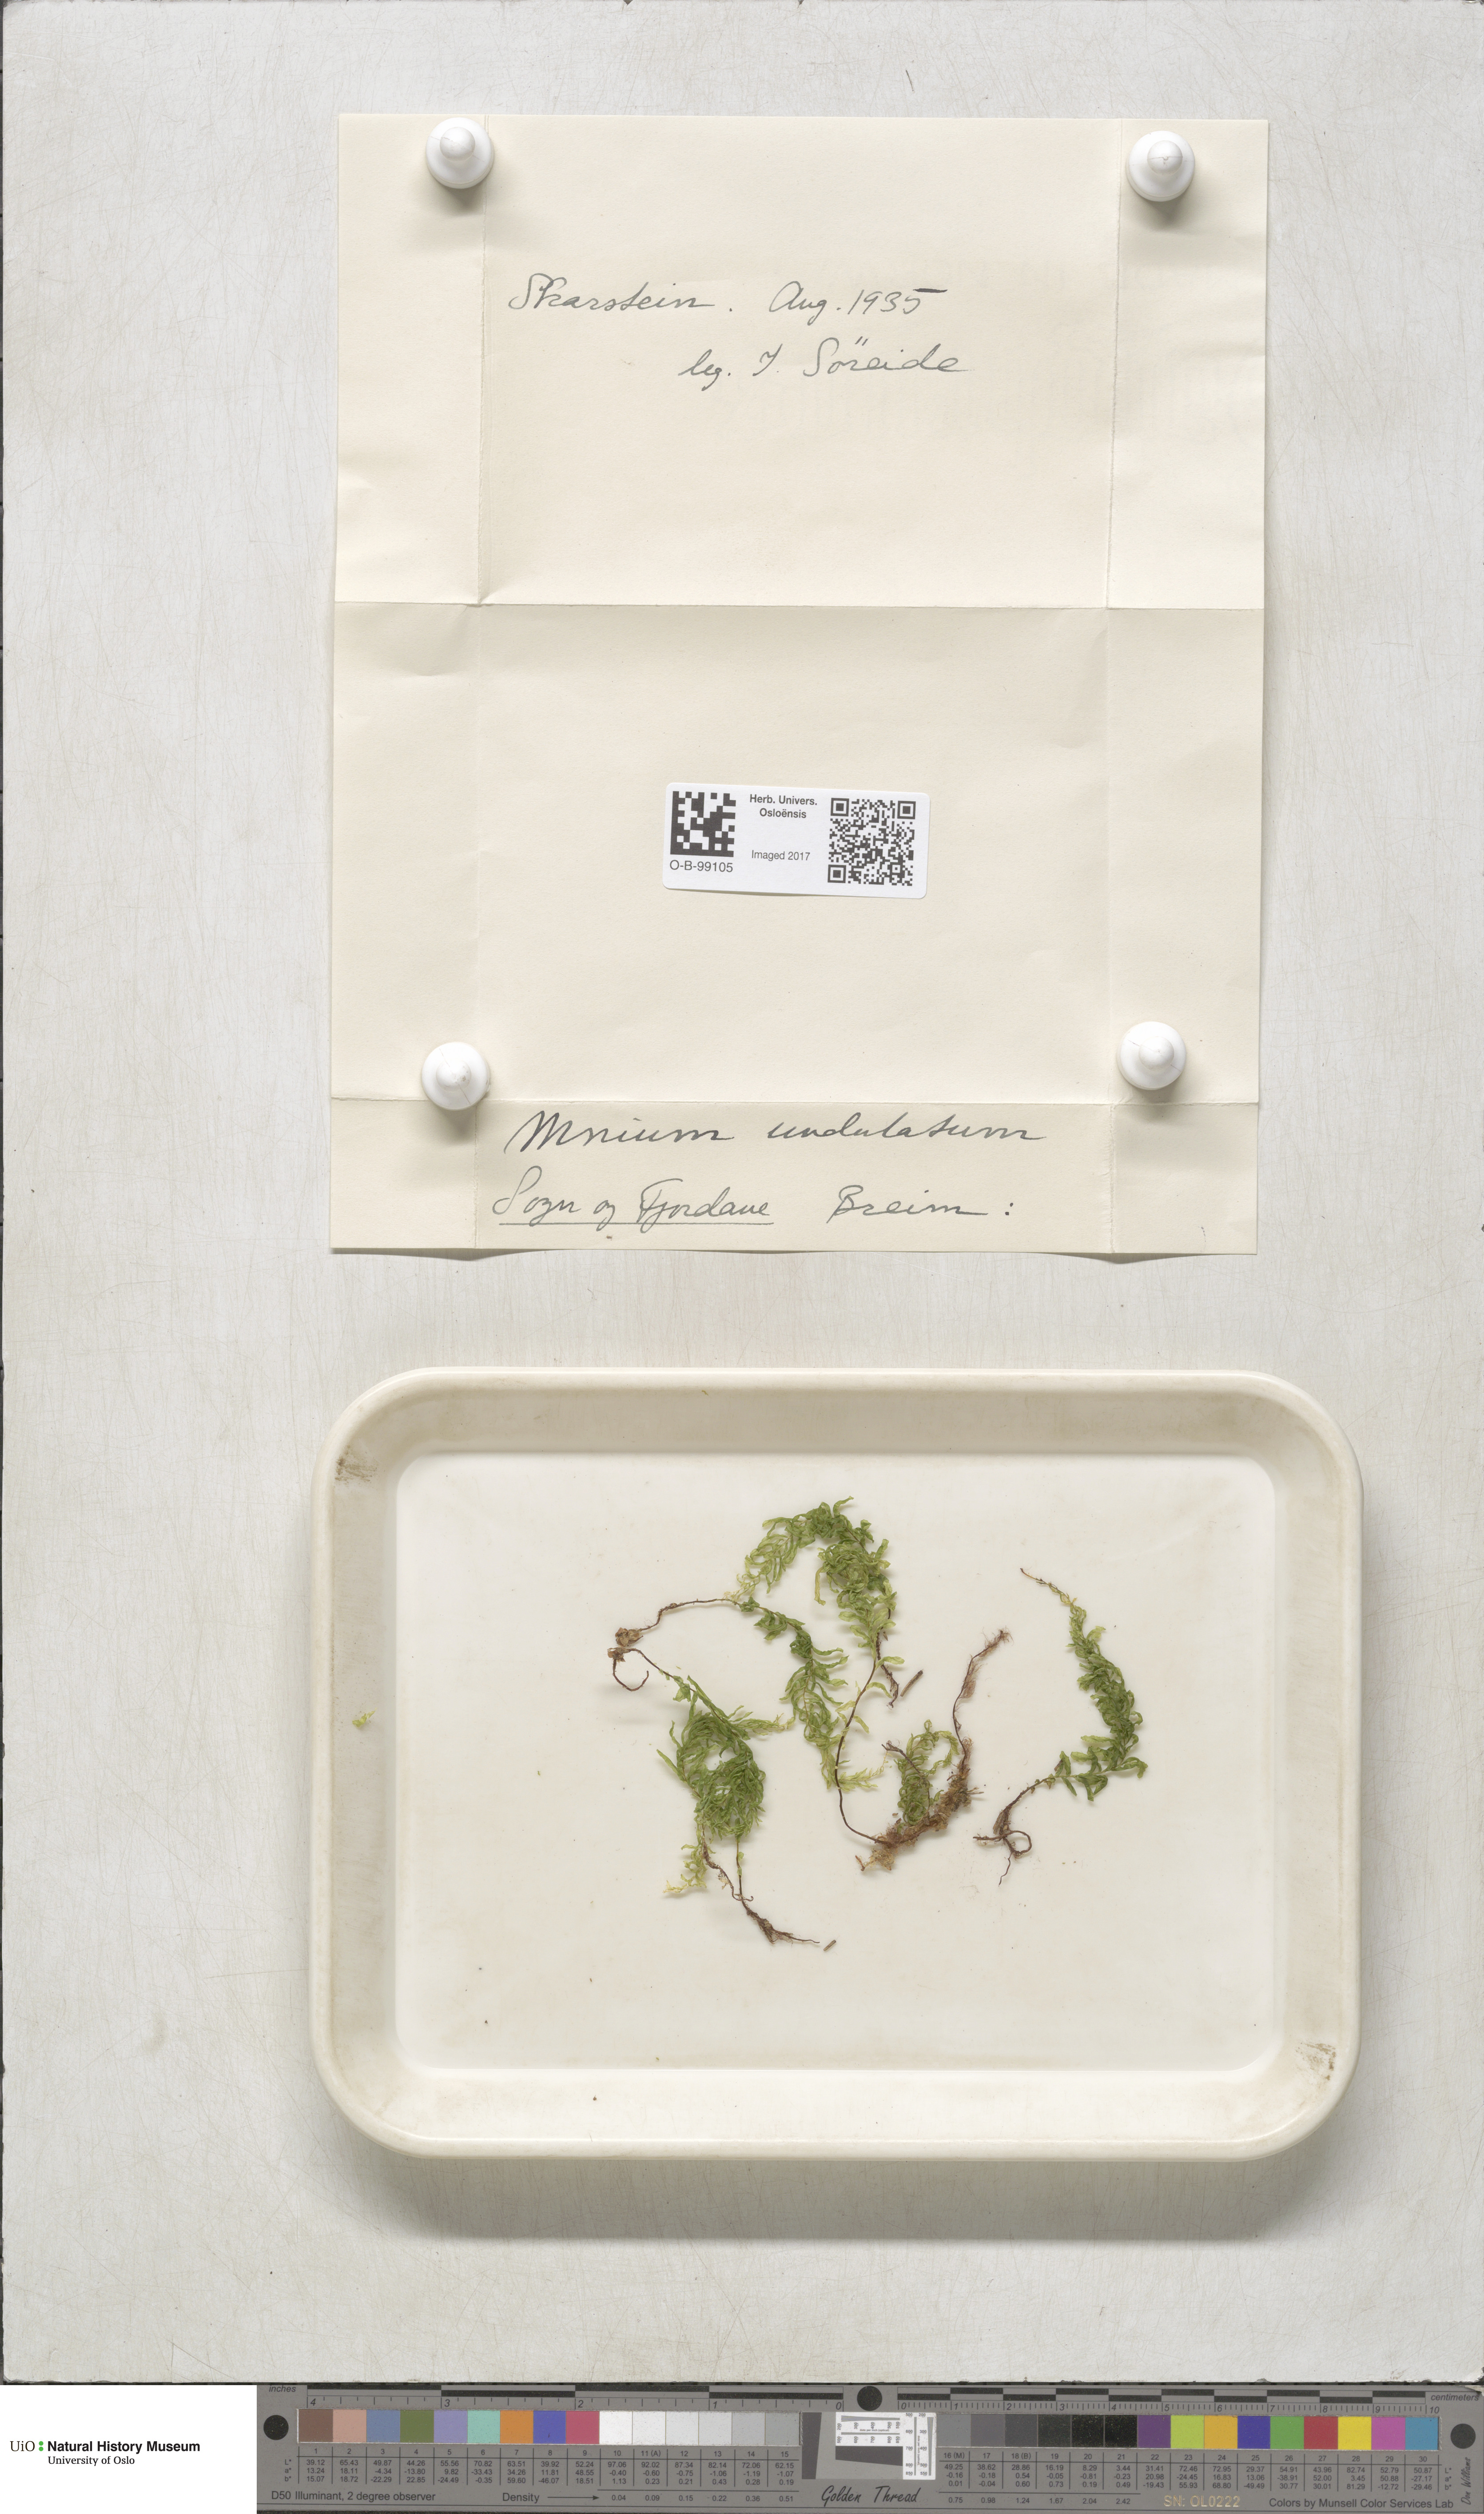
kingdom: Plantae
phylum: Bryophyta
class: Bryopsida
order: Bryales
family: Mniaceae
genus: Plagiomnium
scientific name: Plagiomnium undulatum
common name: Hart's-tongue thyme-moss
